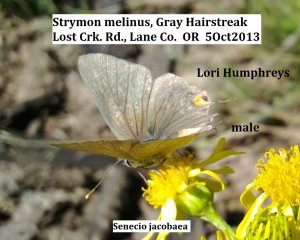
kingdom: Animalia
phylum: Arthropoda
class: Insecta
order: Lepidoptera
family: Lycaenidae
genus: Strymon
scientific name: Strymon melinus
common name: Gray Hairstreak
